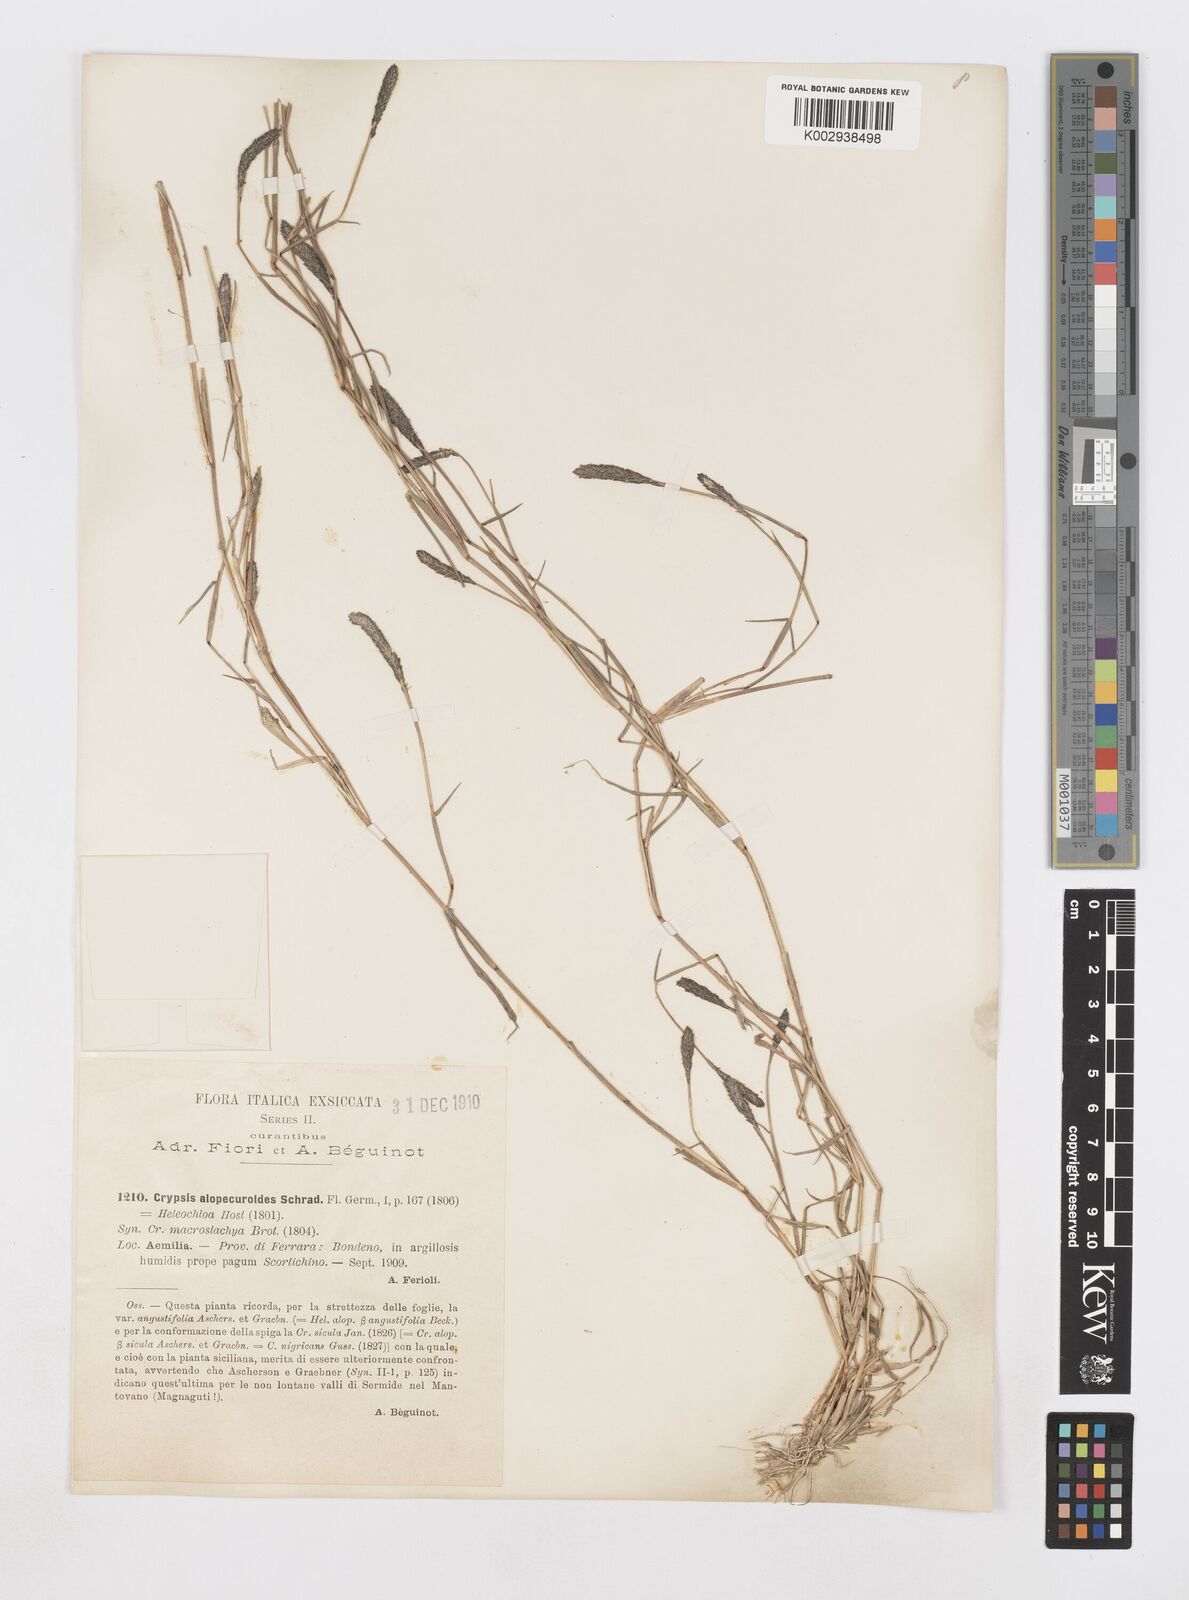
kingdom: Plantae
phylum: Tracheophyta
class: Liliopsida
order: Poales
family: Poaceae
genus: Sporobolus
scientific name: Sporobolus alopecuroides
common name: Foxtail pricklegrass
